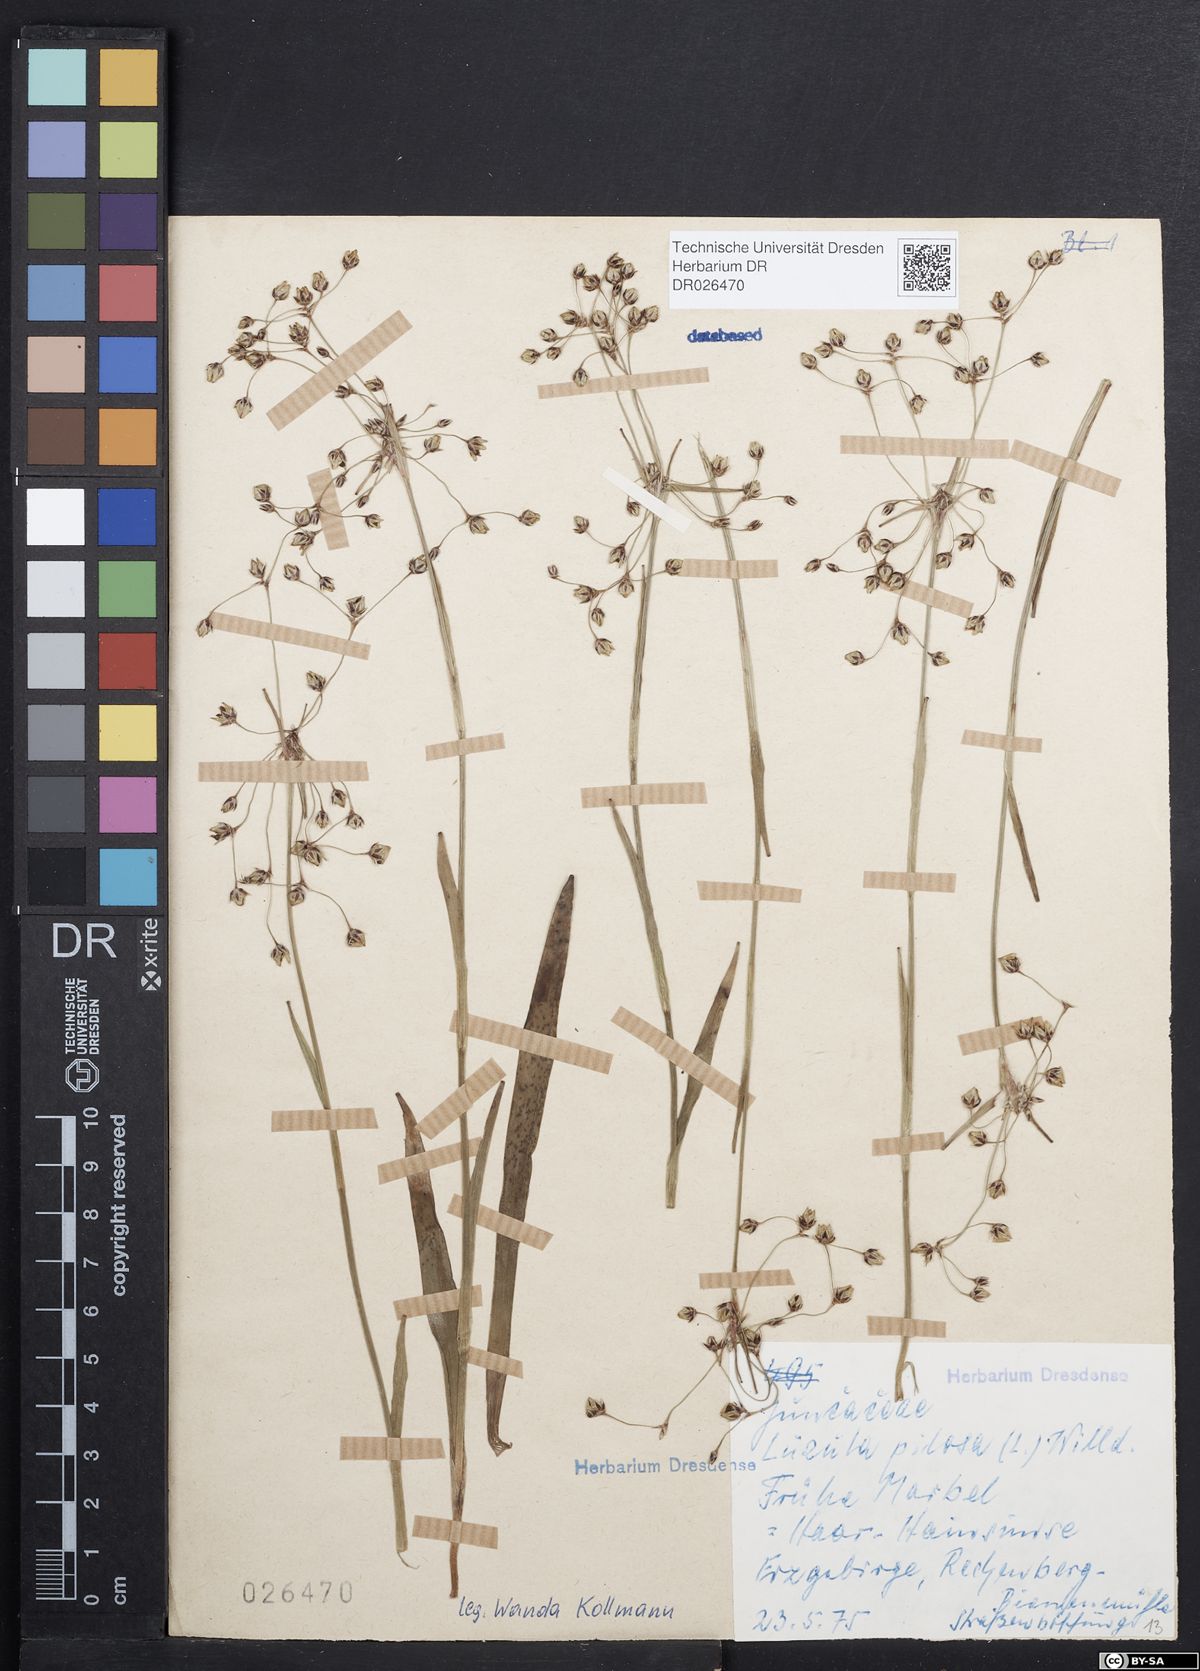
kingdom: Plantae
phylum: Tracheophyta
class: Liliopsida
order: Poales
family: Juncaceae
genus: Luzula
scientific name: Luzula pilosa
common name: Hairy wood-rush
